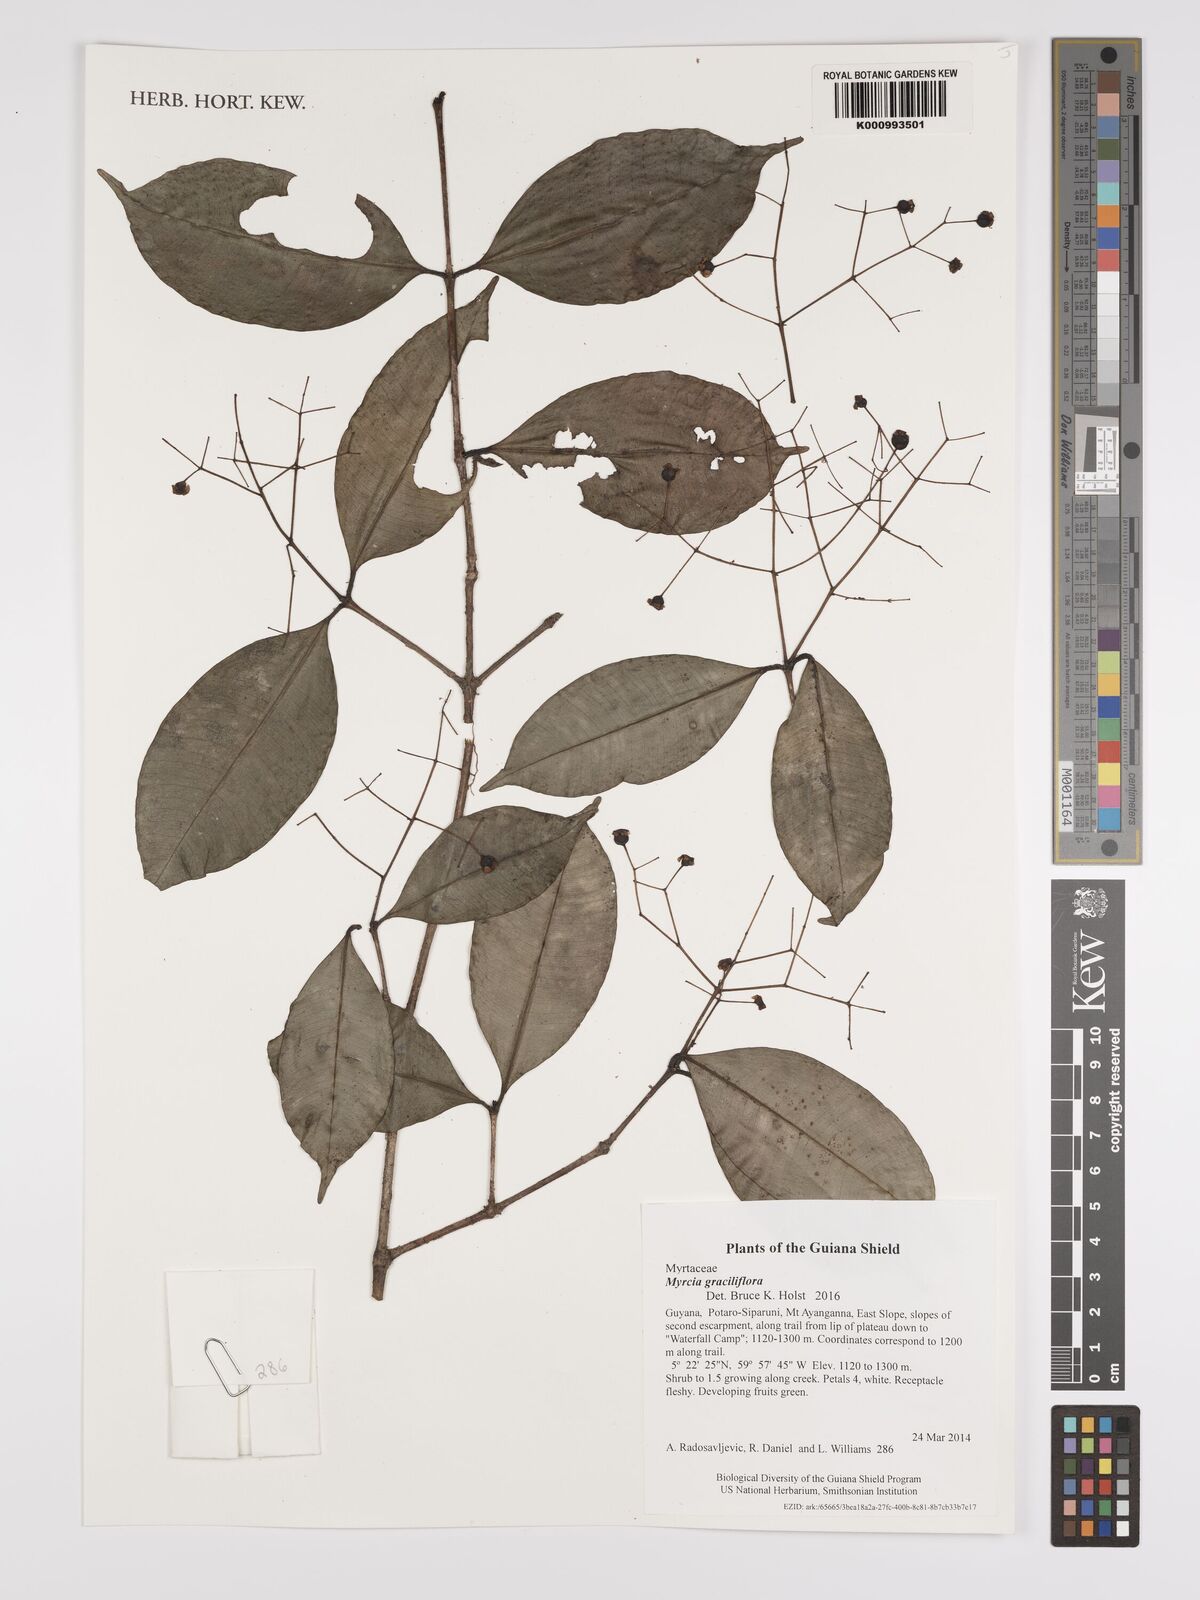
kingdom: Plantae
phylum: Tracheophyta
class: Magnoliopsida
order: Myrtales
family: Myrtaceae
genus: Myrcia
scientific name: Myrcia graciliflora
